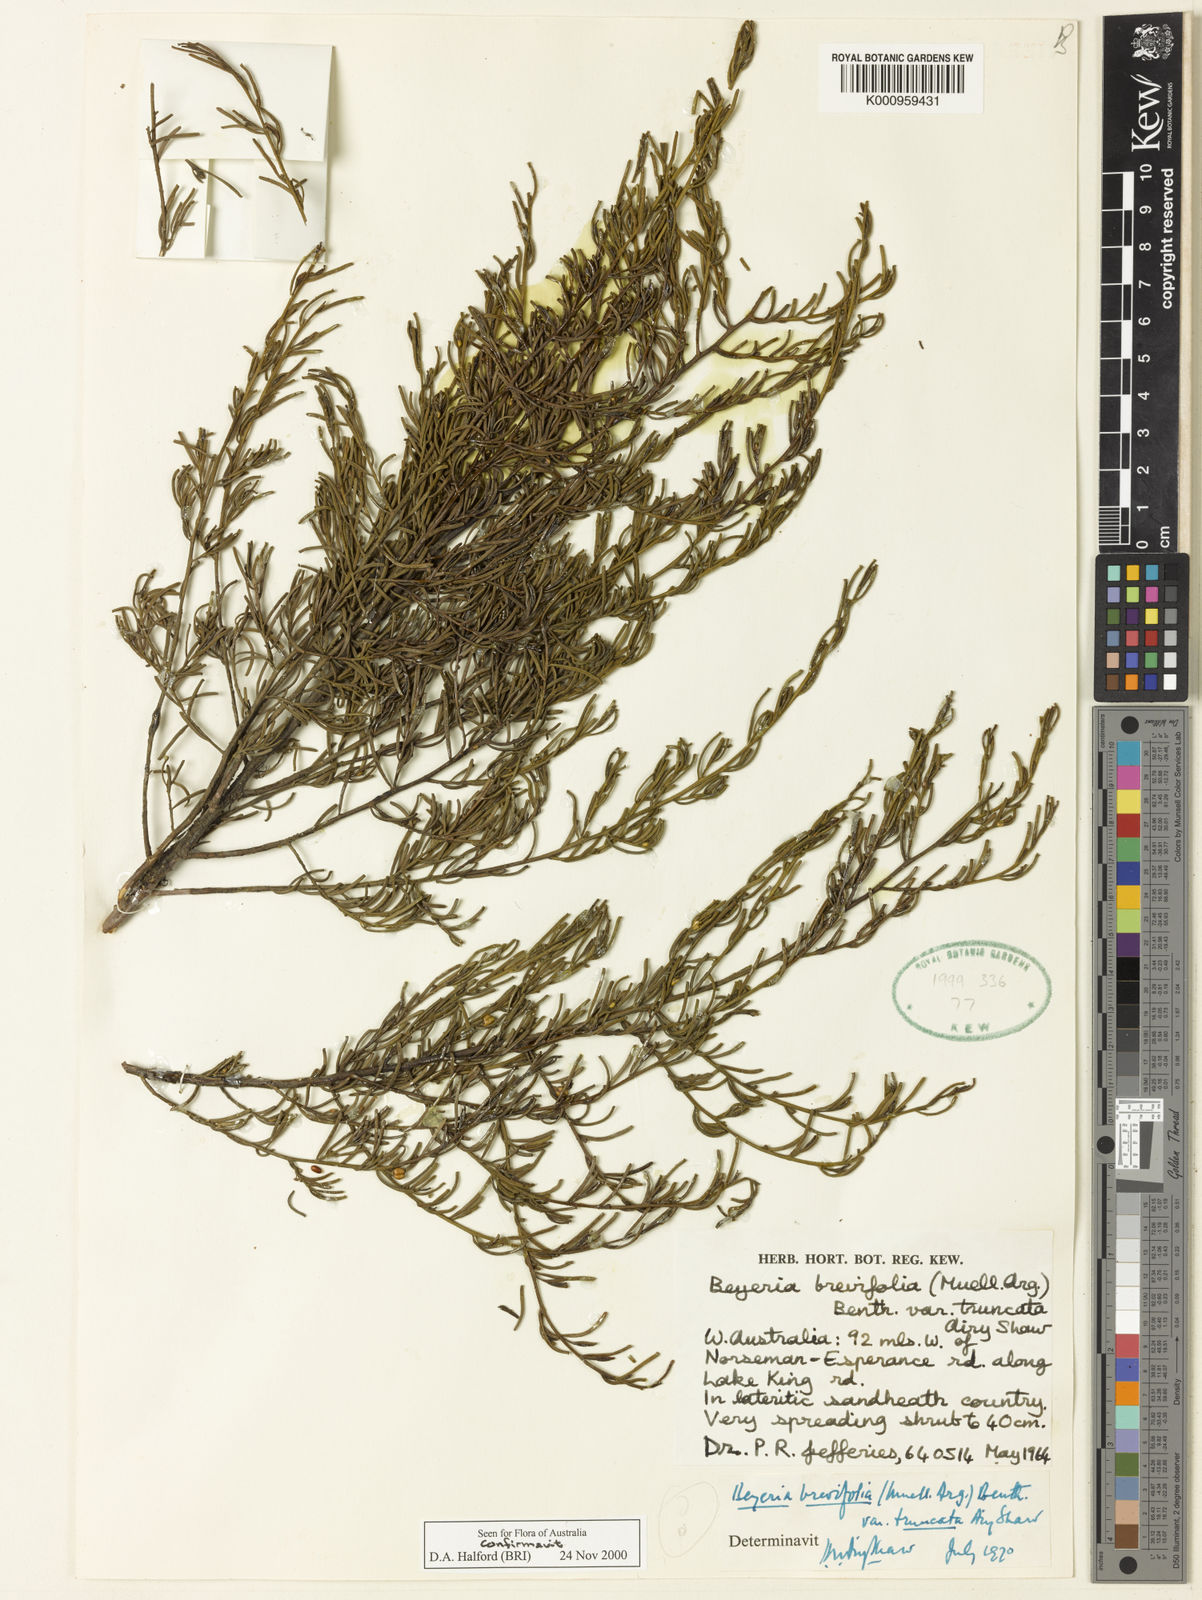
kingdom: Plantae
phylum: Tracheophyta
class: Magnoliopsida
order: Malpighiales
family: Euphorbiaceae
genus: Beyeria
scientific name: Beyeria
